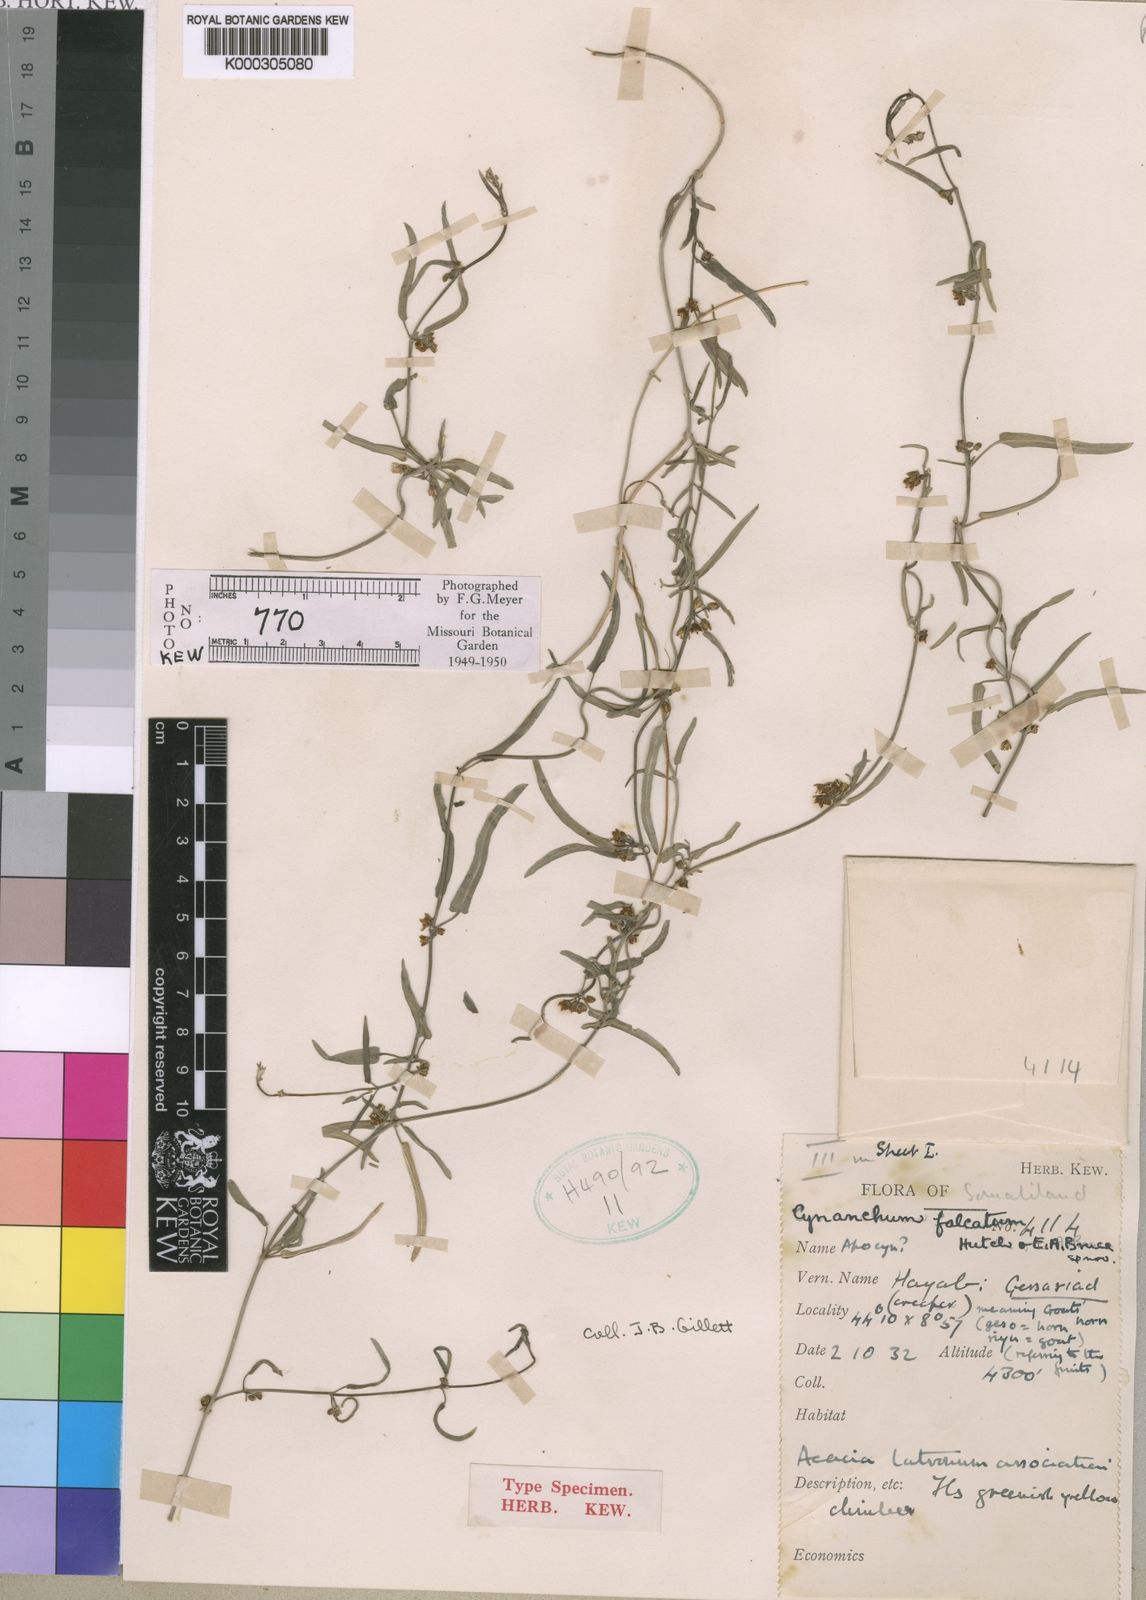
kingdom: Plantae
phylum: Tracheophyta
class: Magnoliopsida
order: Gentianales
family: Apocynaceae
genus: Cynanchum
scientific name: Cynanchum falcatum
